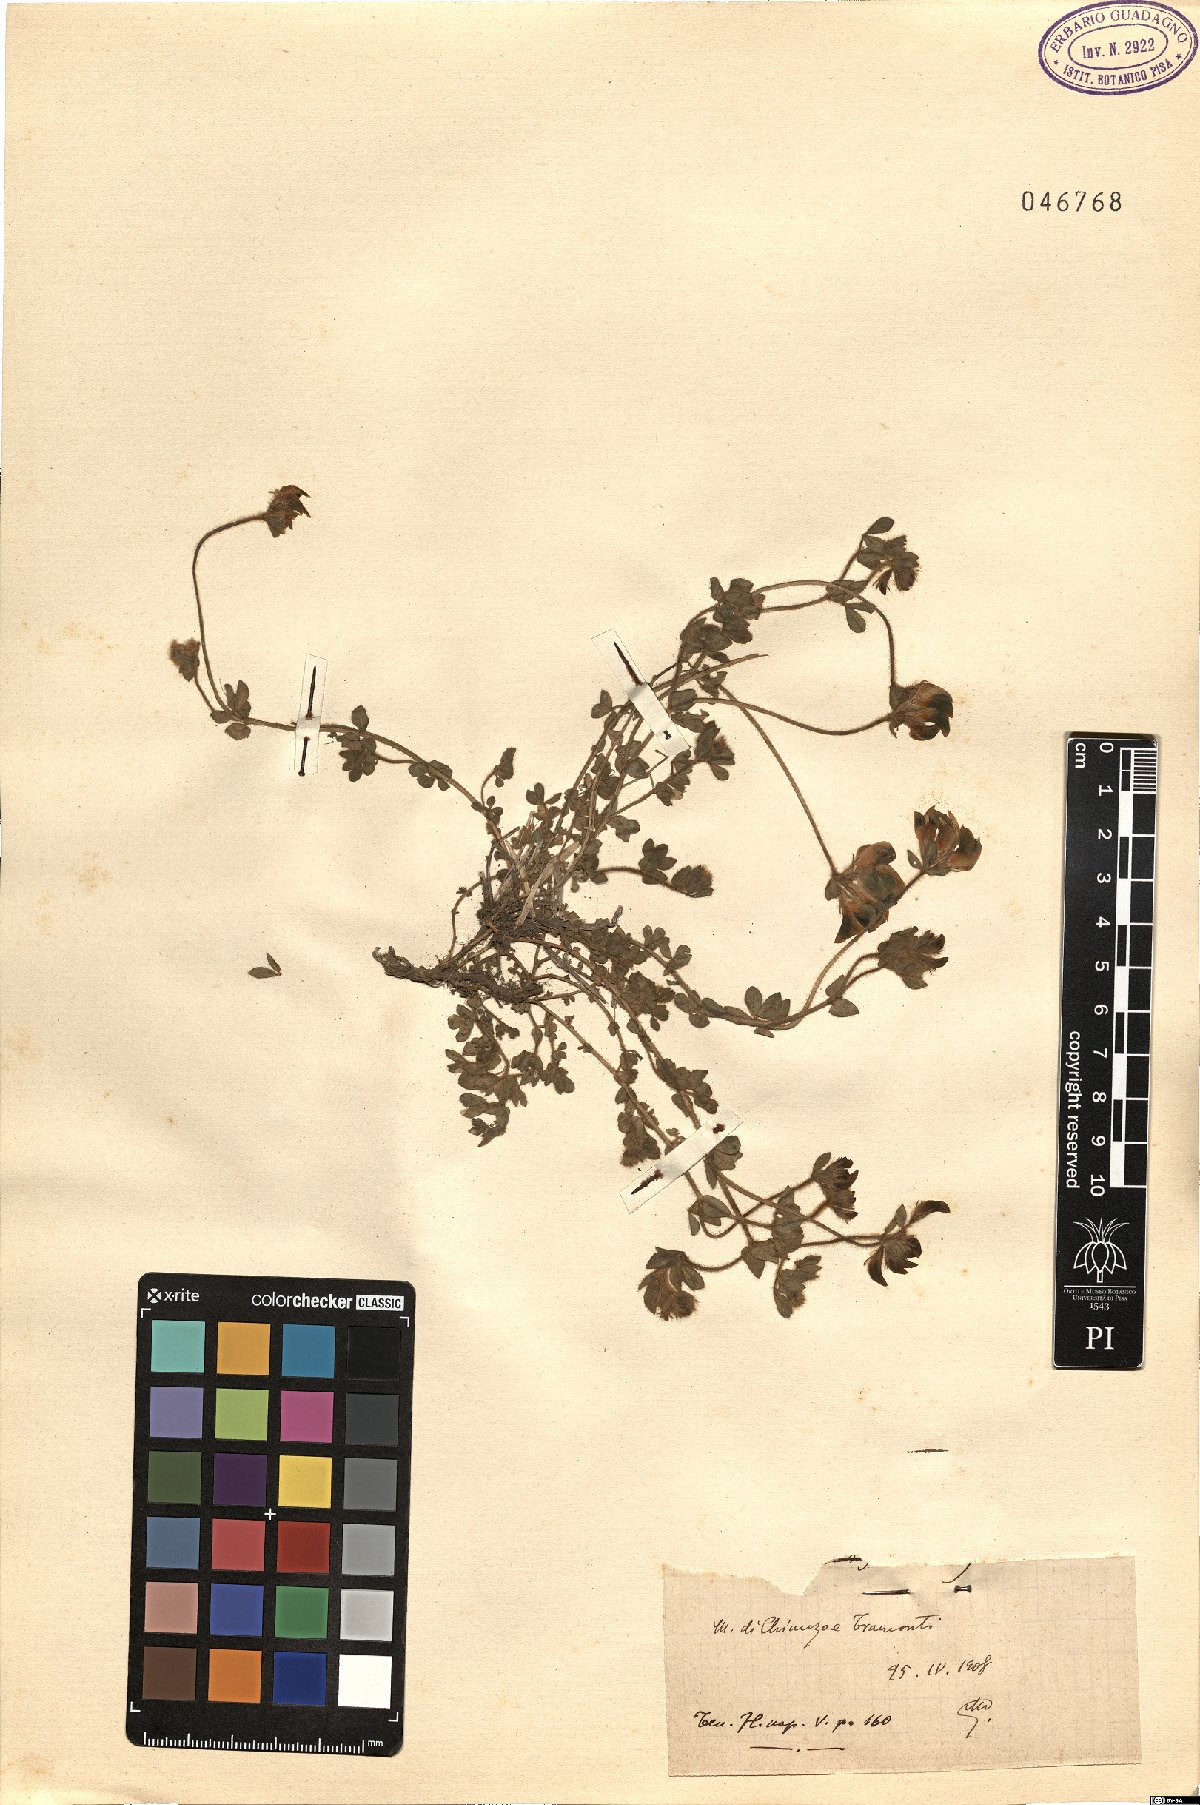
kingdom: Plantae
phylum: Tracheophyta
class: Magnoliopsida
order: Fabales
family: Fabaceae
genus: Lotus
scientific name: Lotus
